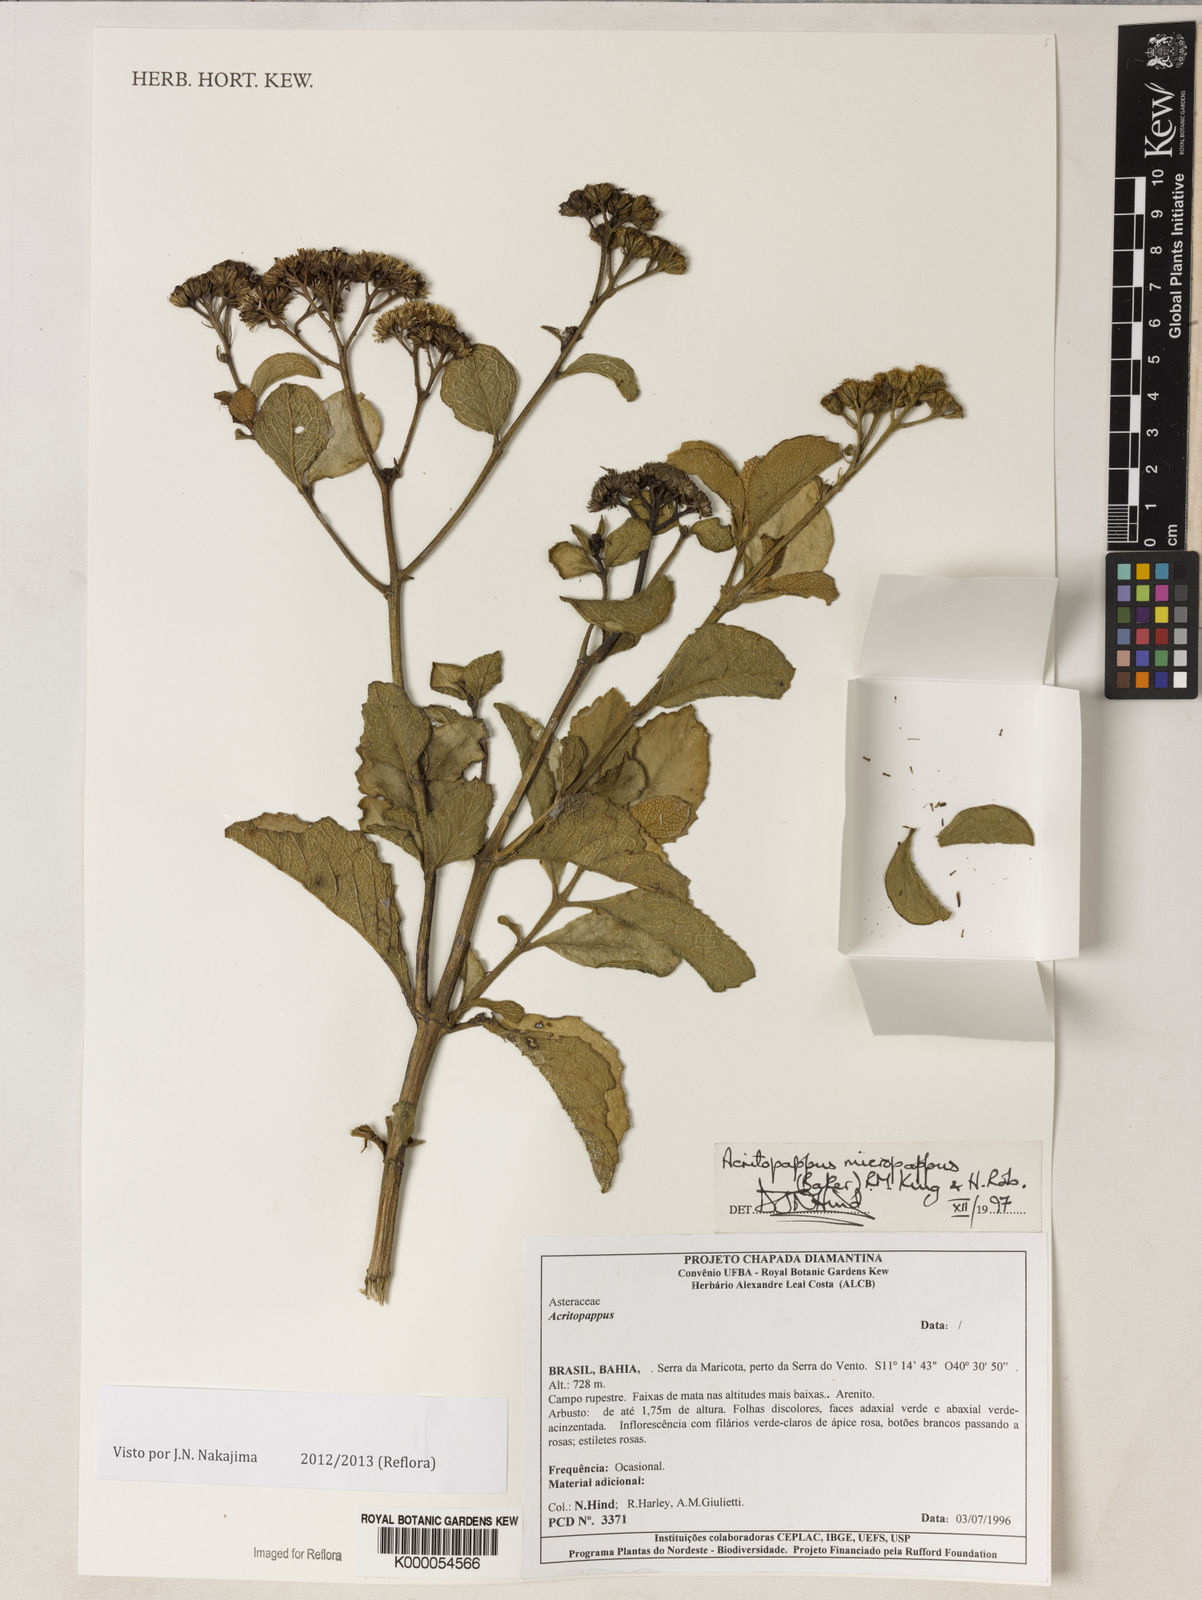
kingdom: Plantae
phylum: Tracheophyta
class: Magnoliopsida
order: Asterales
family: Asteraceae
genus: Acritopappus
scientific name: Acritopappus micropappus
